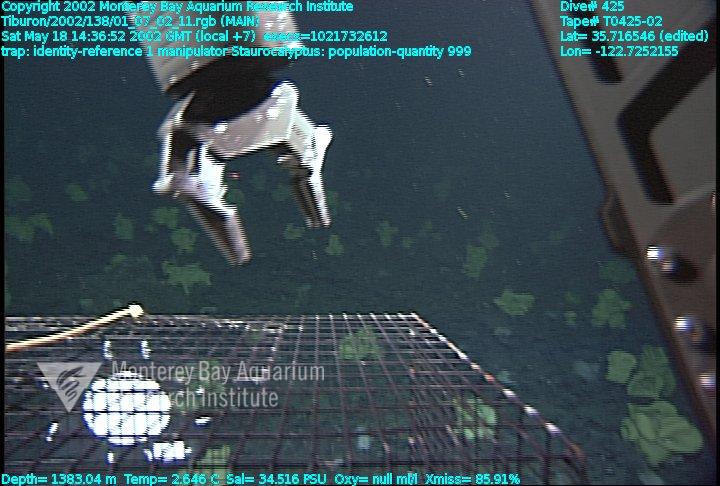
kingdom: Animalia
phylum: Porifera
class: Hexactinellida
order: Lyssacinosida
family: Rossellidae
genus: Staurocalyptus
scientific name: Staurocalyptus
